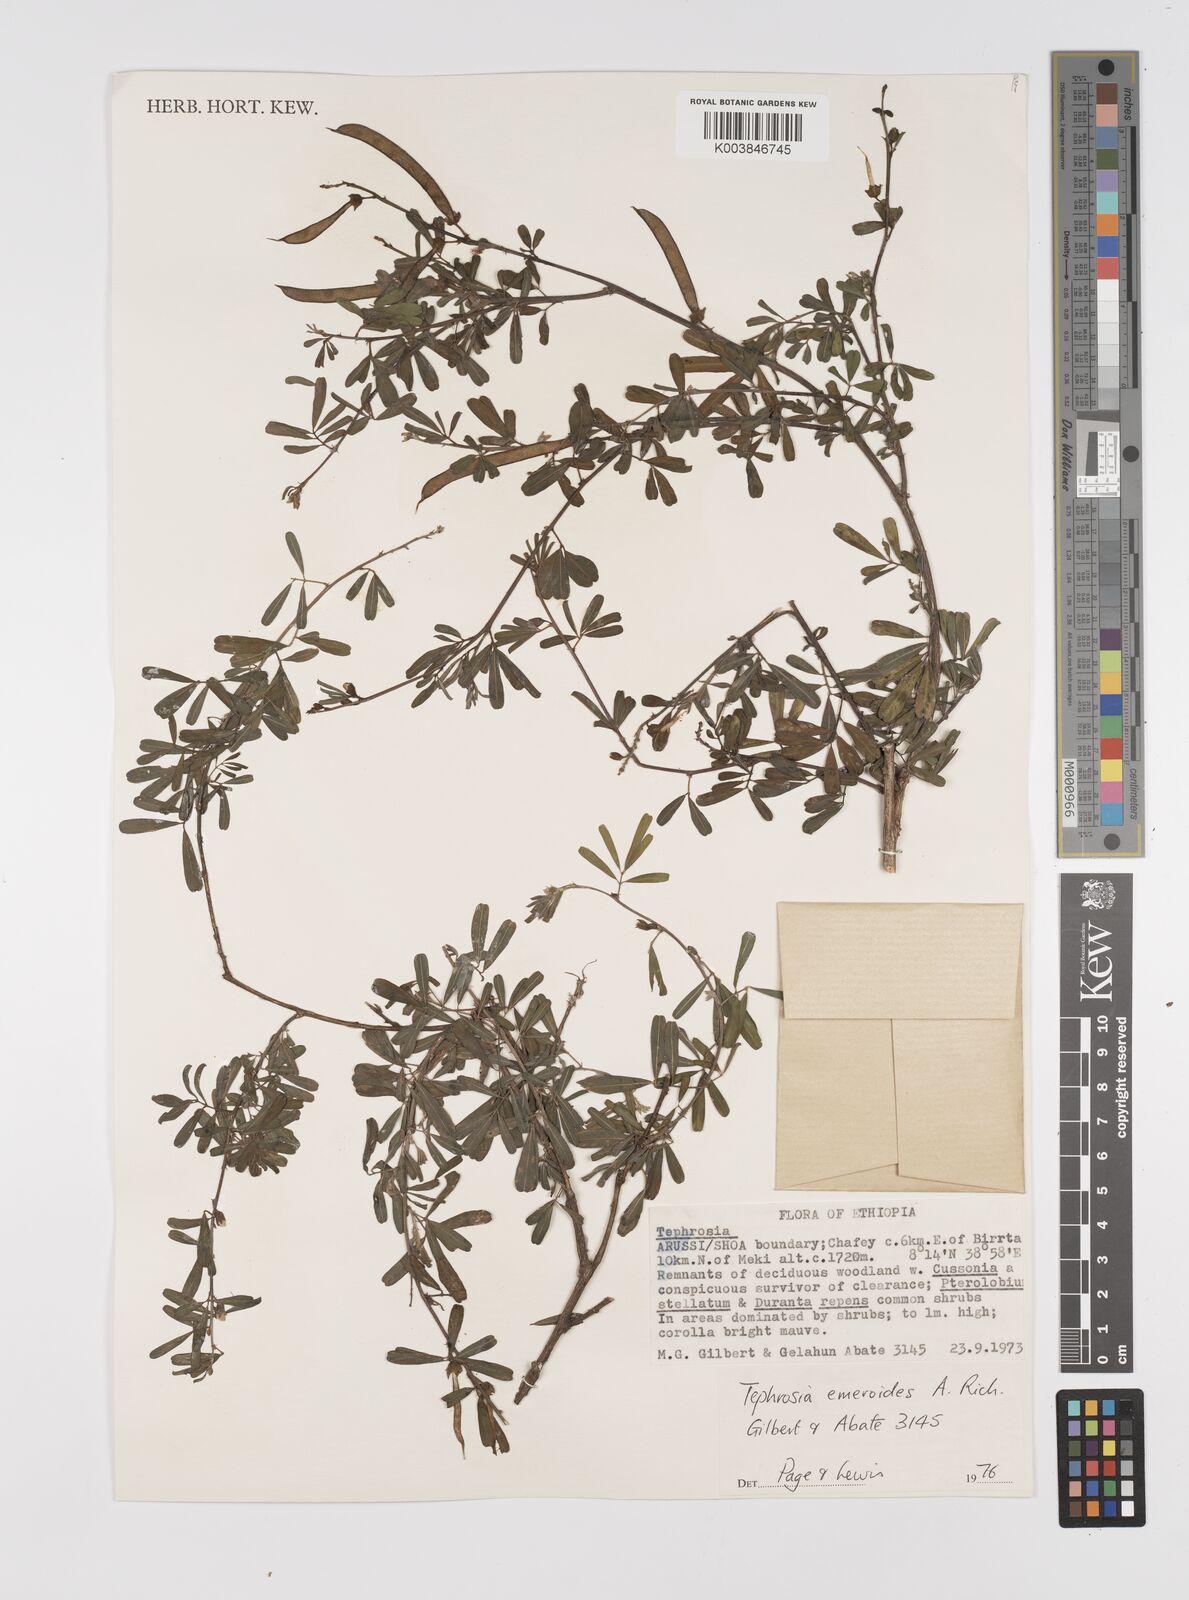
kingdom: Plantae
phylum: Tracheophyta
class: Magnoliopsida
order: Fabales
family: Fabaceae
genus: Tephrosia
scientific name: Tephrosia emeroides
